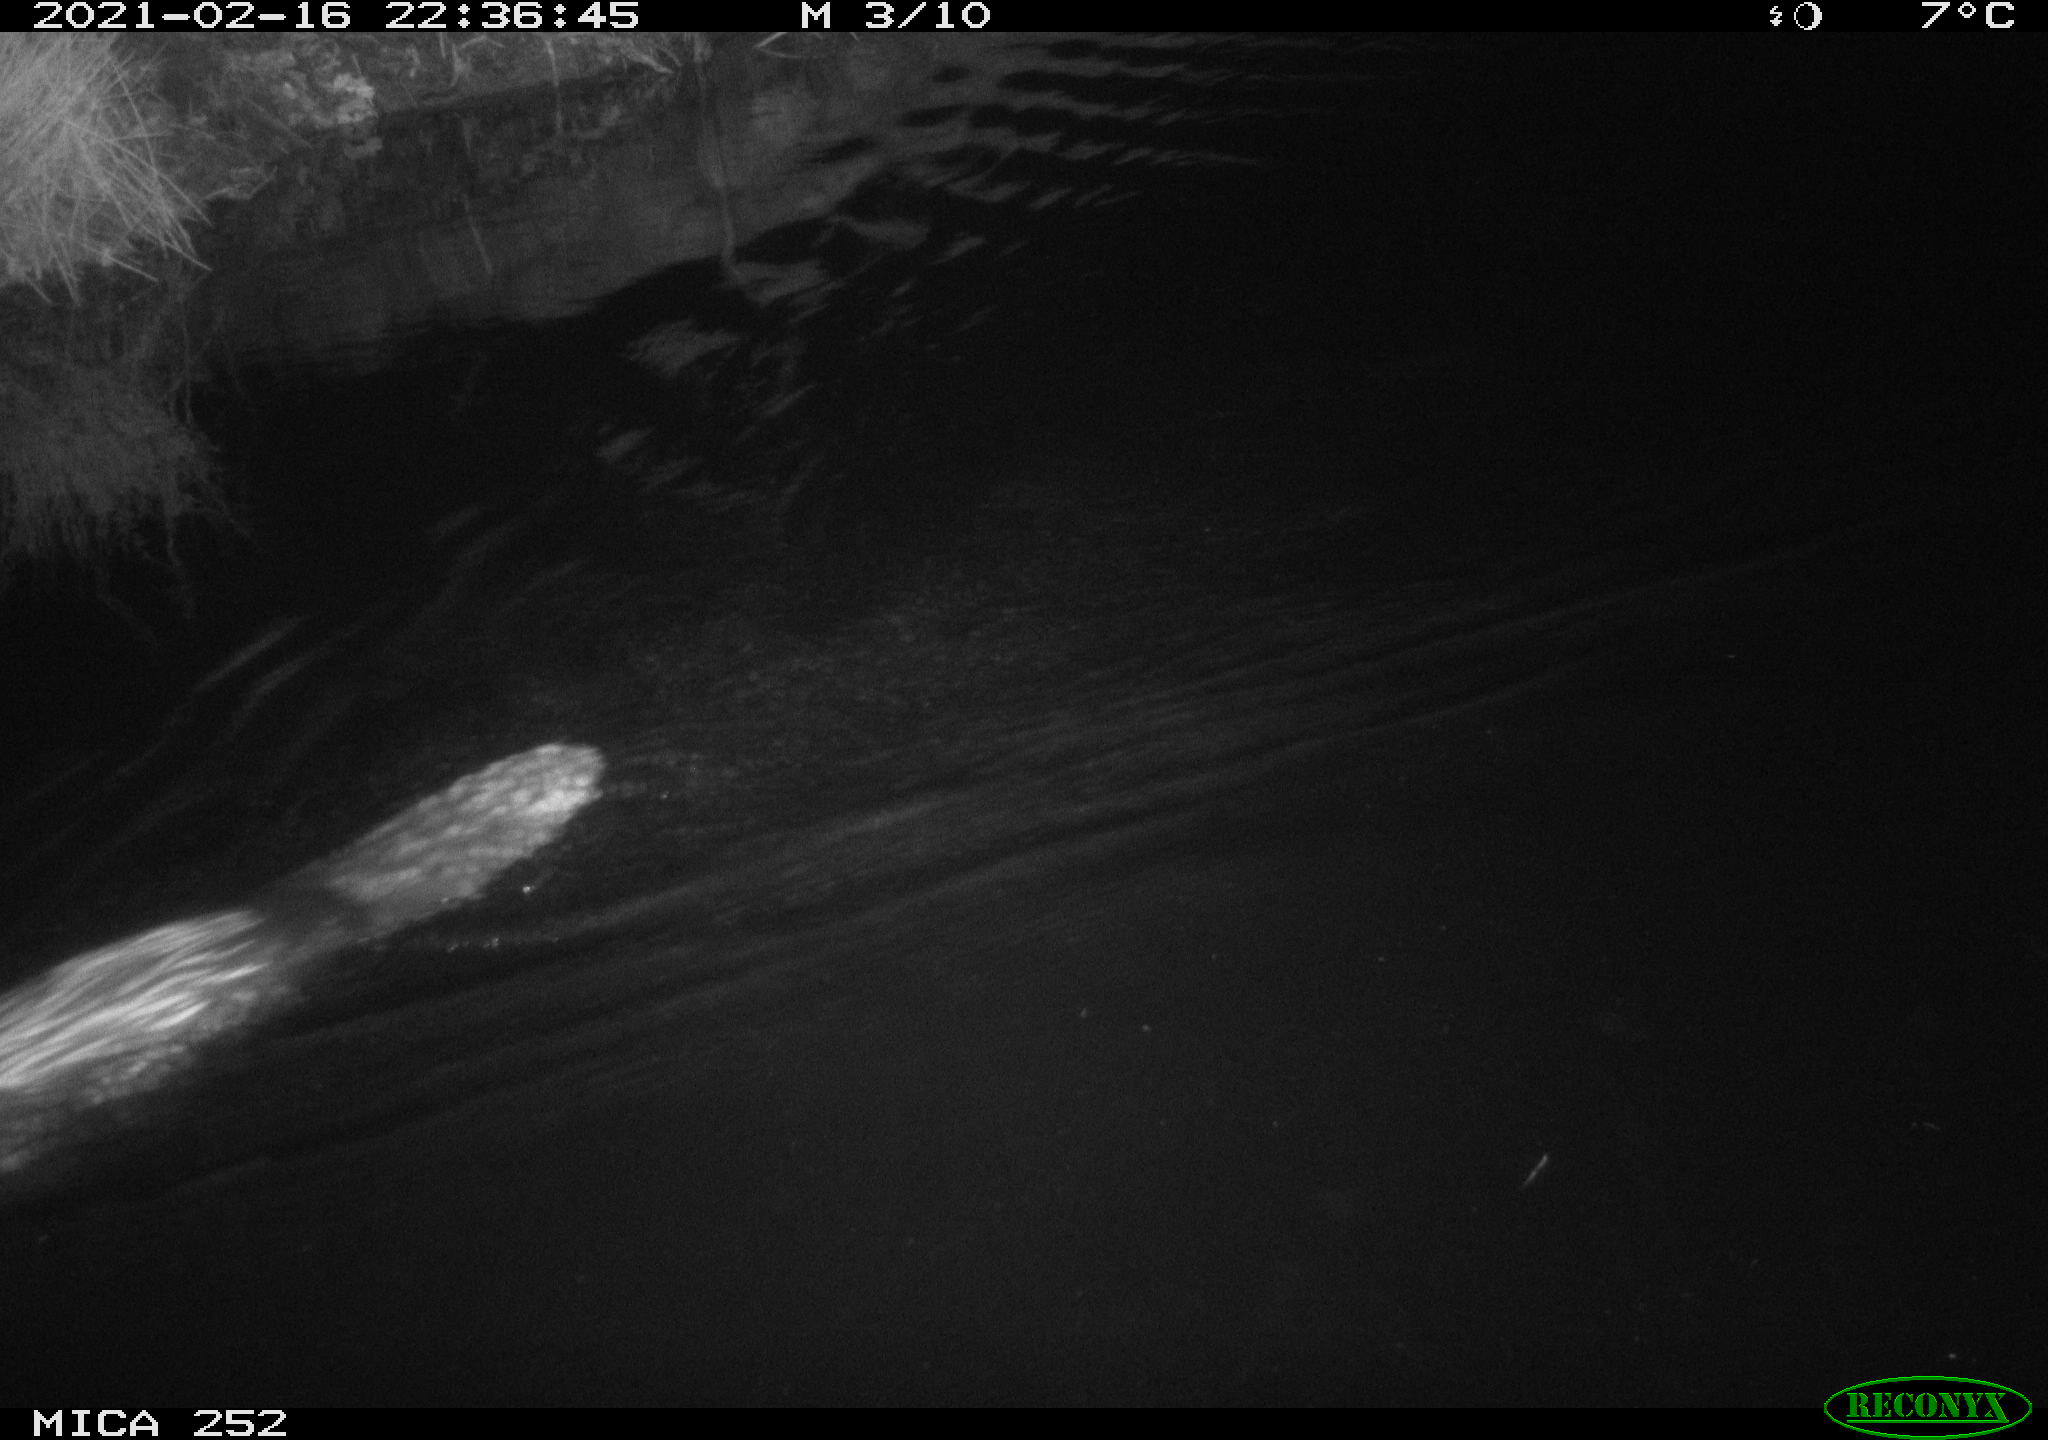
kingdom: Animalia
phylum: Chordata
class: Mammalia
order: Rodentia
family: Castoridae
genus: Castor
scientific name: Castor fiber
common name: Eurasian beaver
